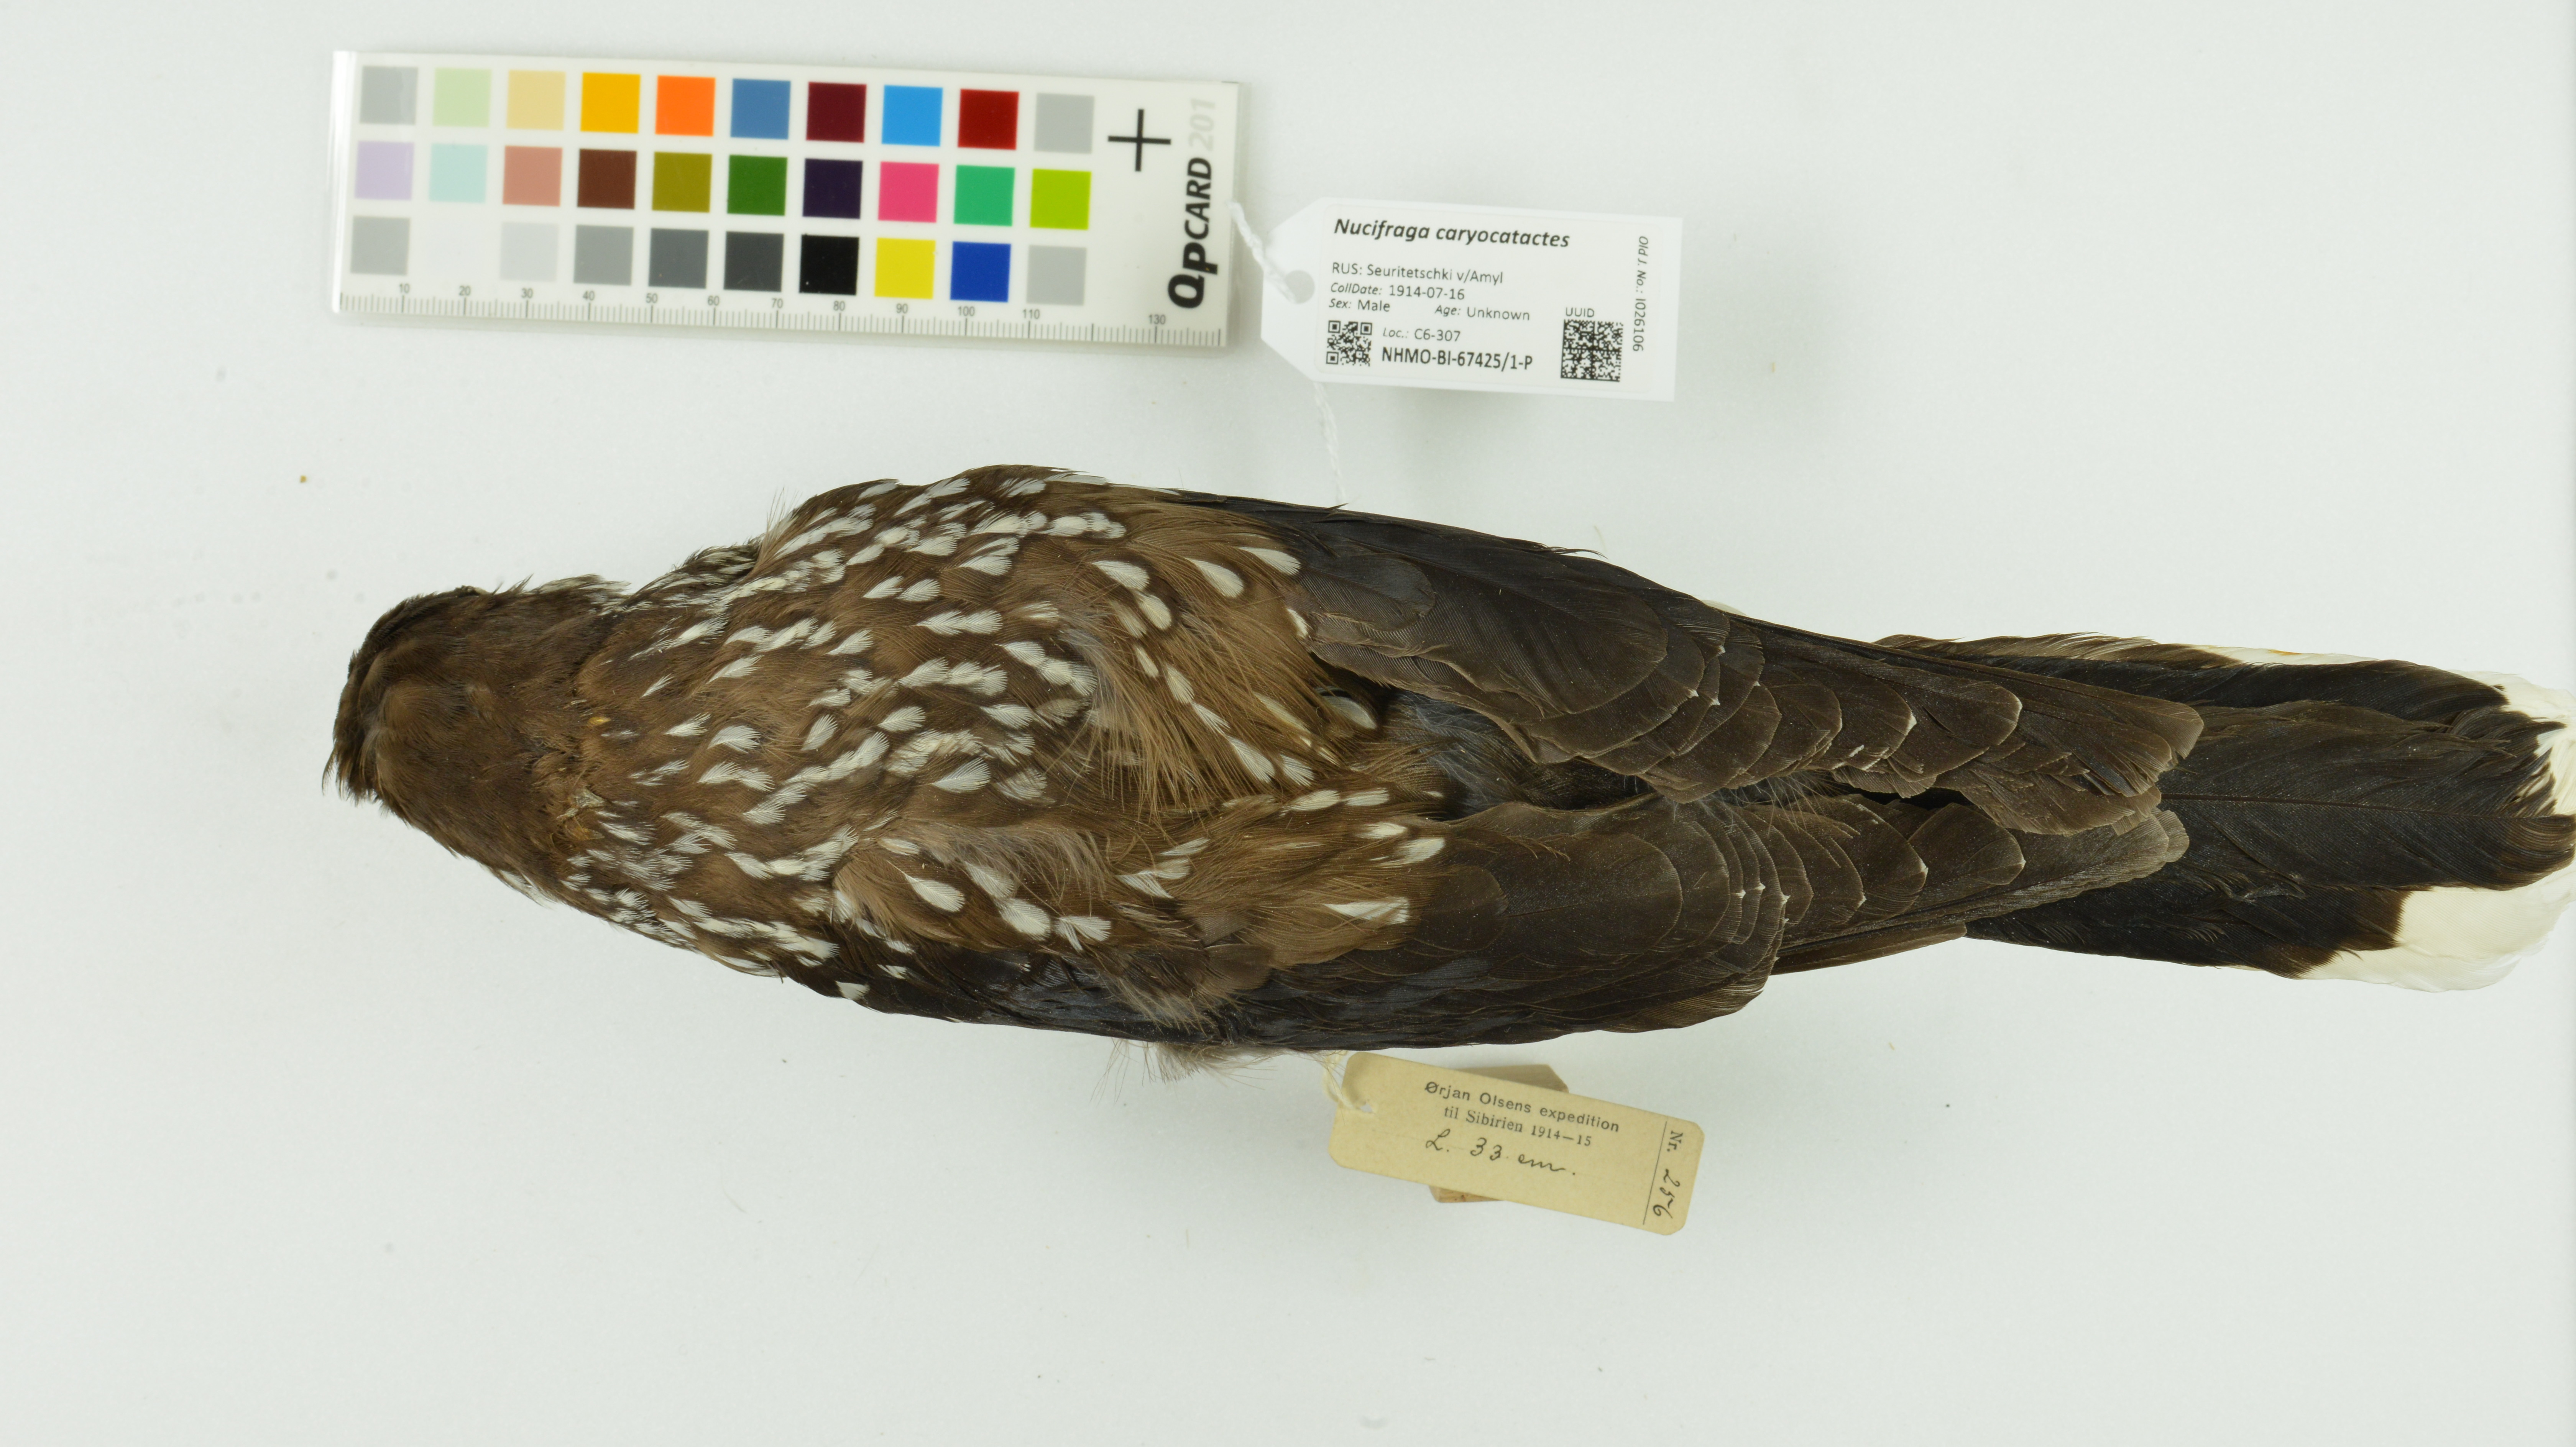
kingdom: Animalia
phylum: Chordata
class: Aves
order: Passeriformes
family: Corvidae
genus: Nucifraga
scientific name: Nucifraga caryocatactes
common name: Spotted nutcracker
